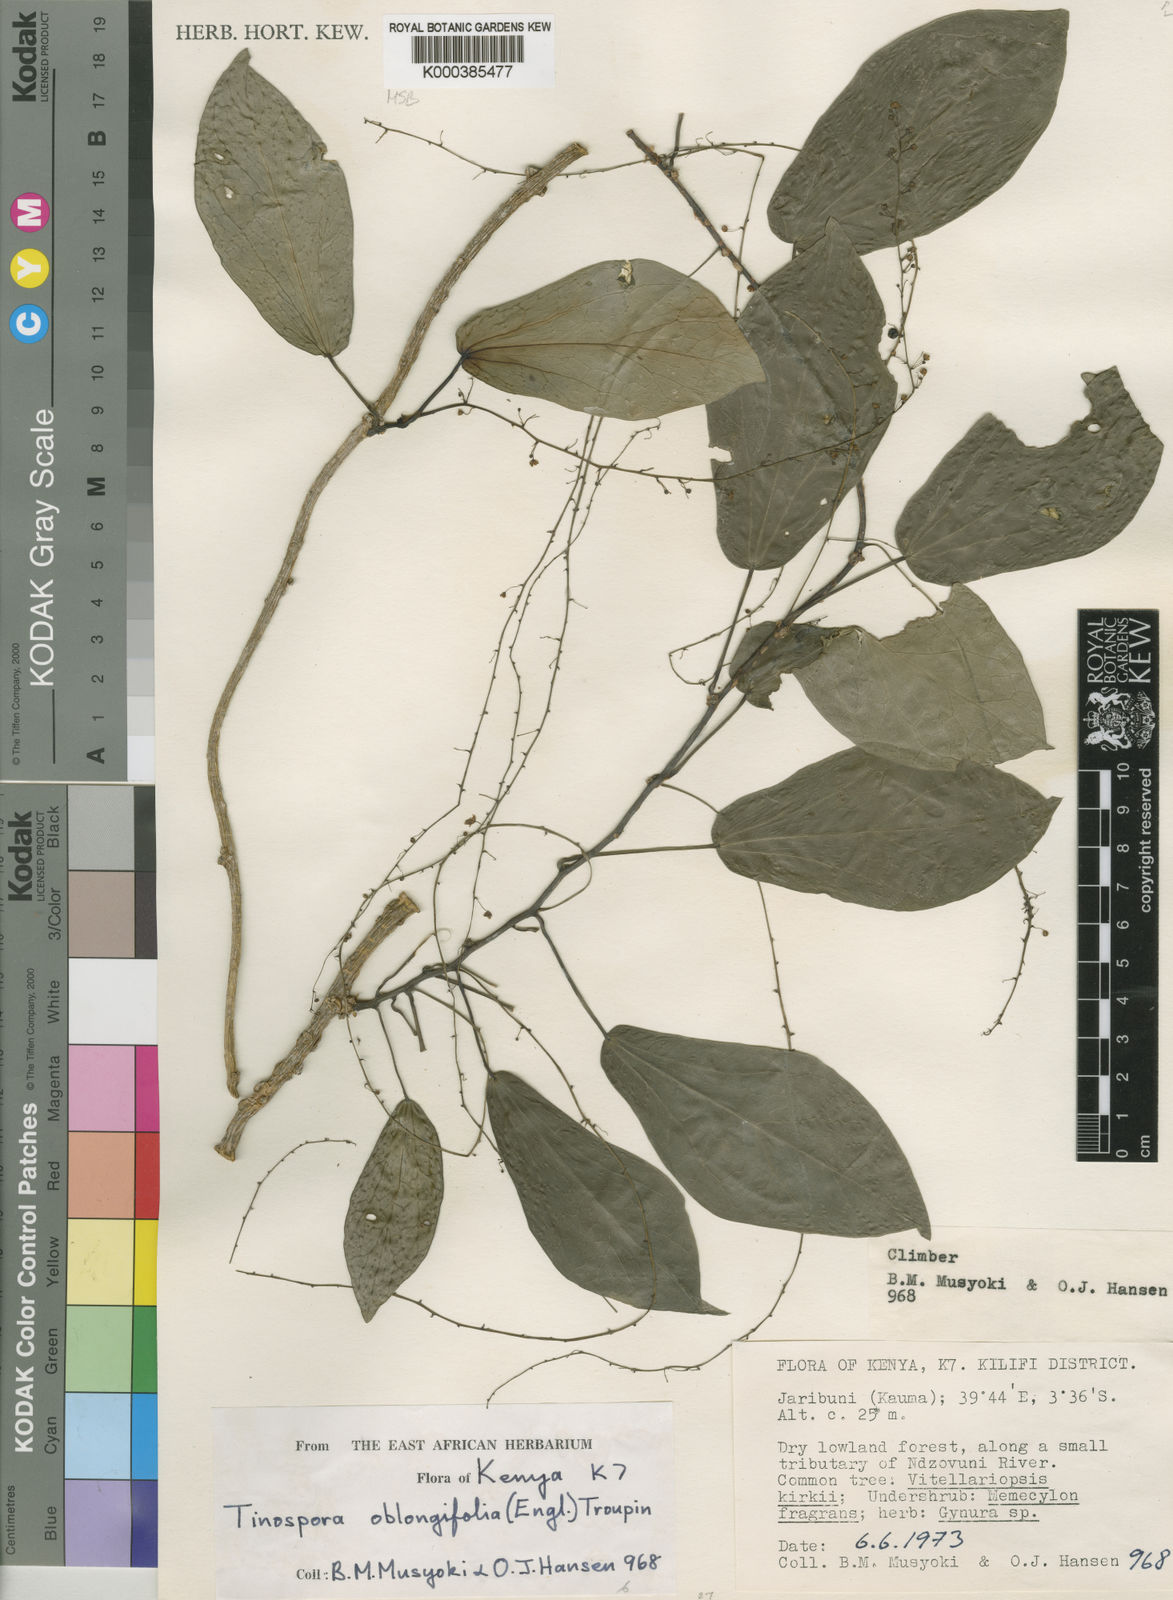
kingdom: Plantae
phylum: Tracheophyta
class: Magnoliopsida
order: Ranunculales
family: Menispermaceae
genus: Tinospora
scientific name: Tinospora oblongifolia
